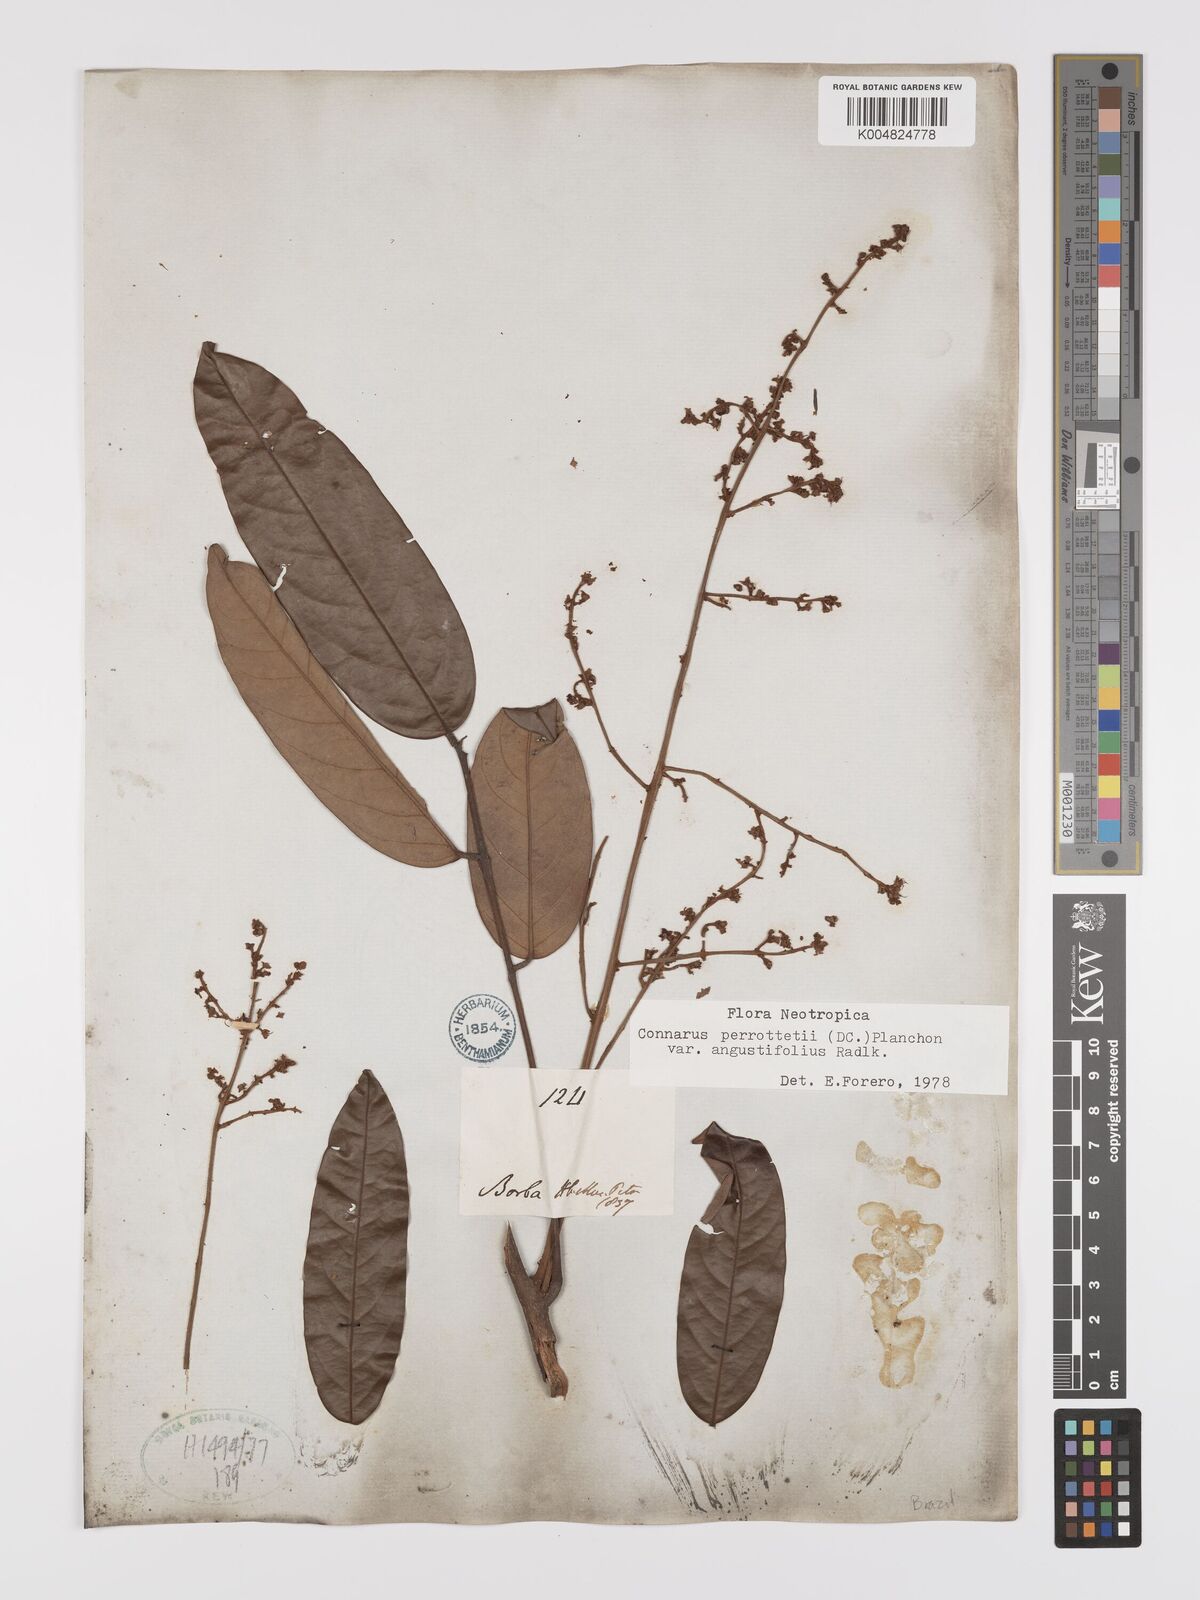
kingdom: Plantae
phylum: Tracheophyta
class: Magnoliopsida
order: Oxalidales
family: Connaraceae
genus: Connarus
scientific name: Connarus perrottetii
